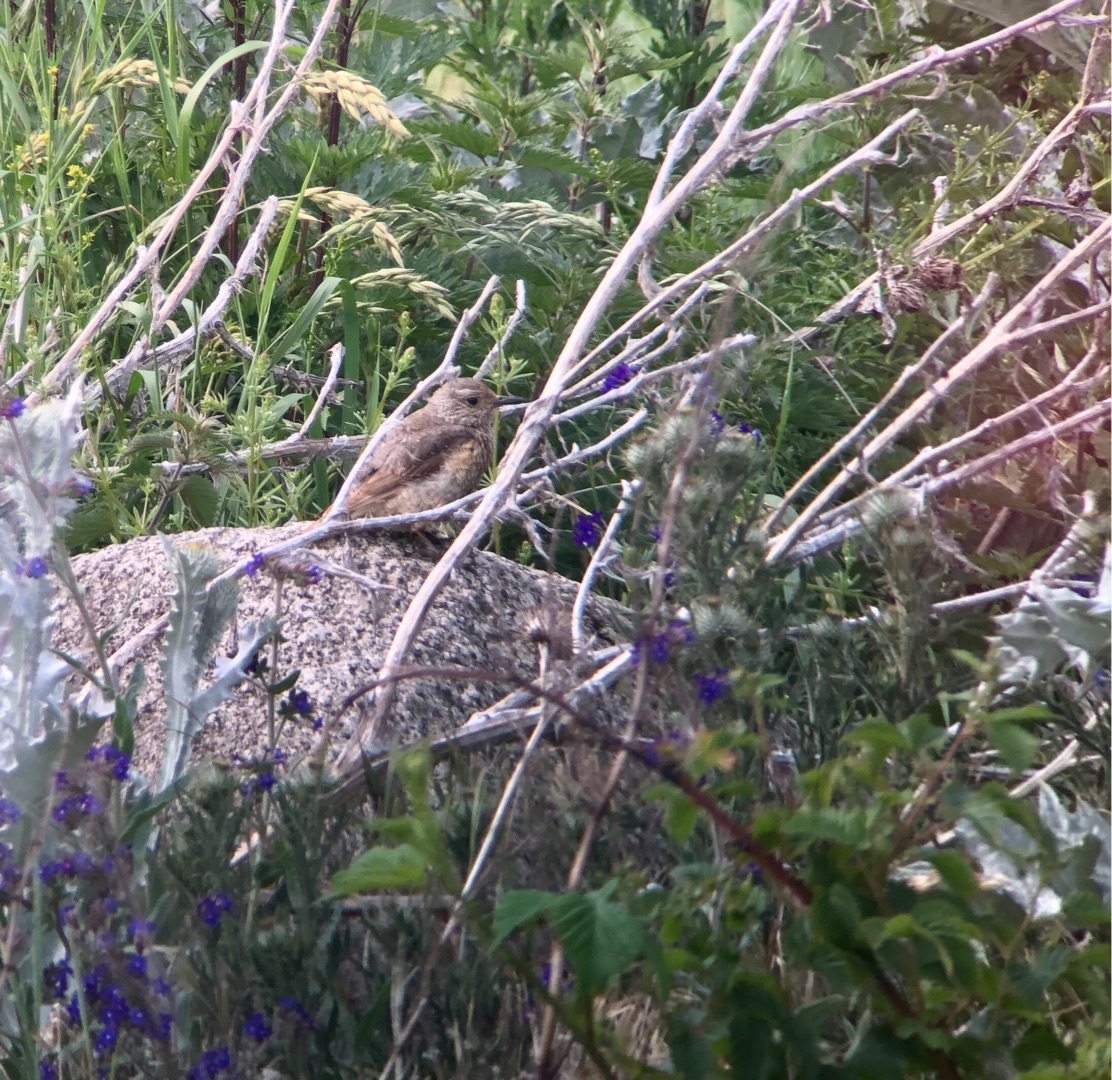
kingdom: Animalia
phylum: Chordata
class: Aves
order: Passeriformes
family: Muscicapidae
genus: Monticola
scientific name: Monticola saxatilis
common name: Stendrossel
